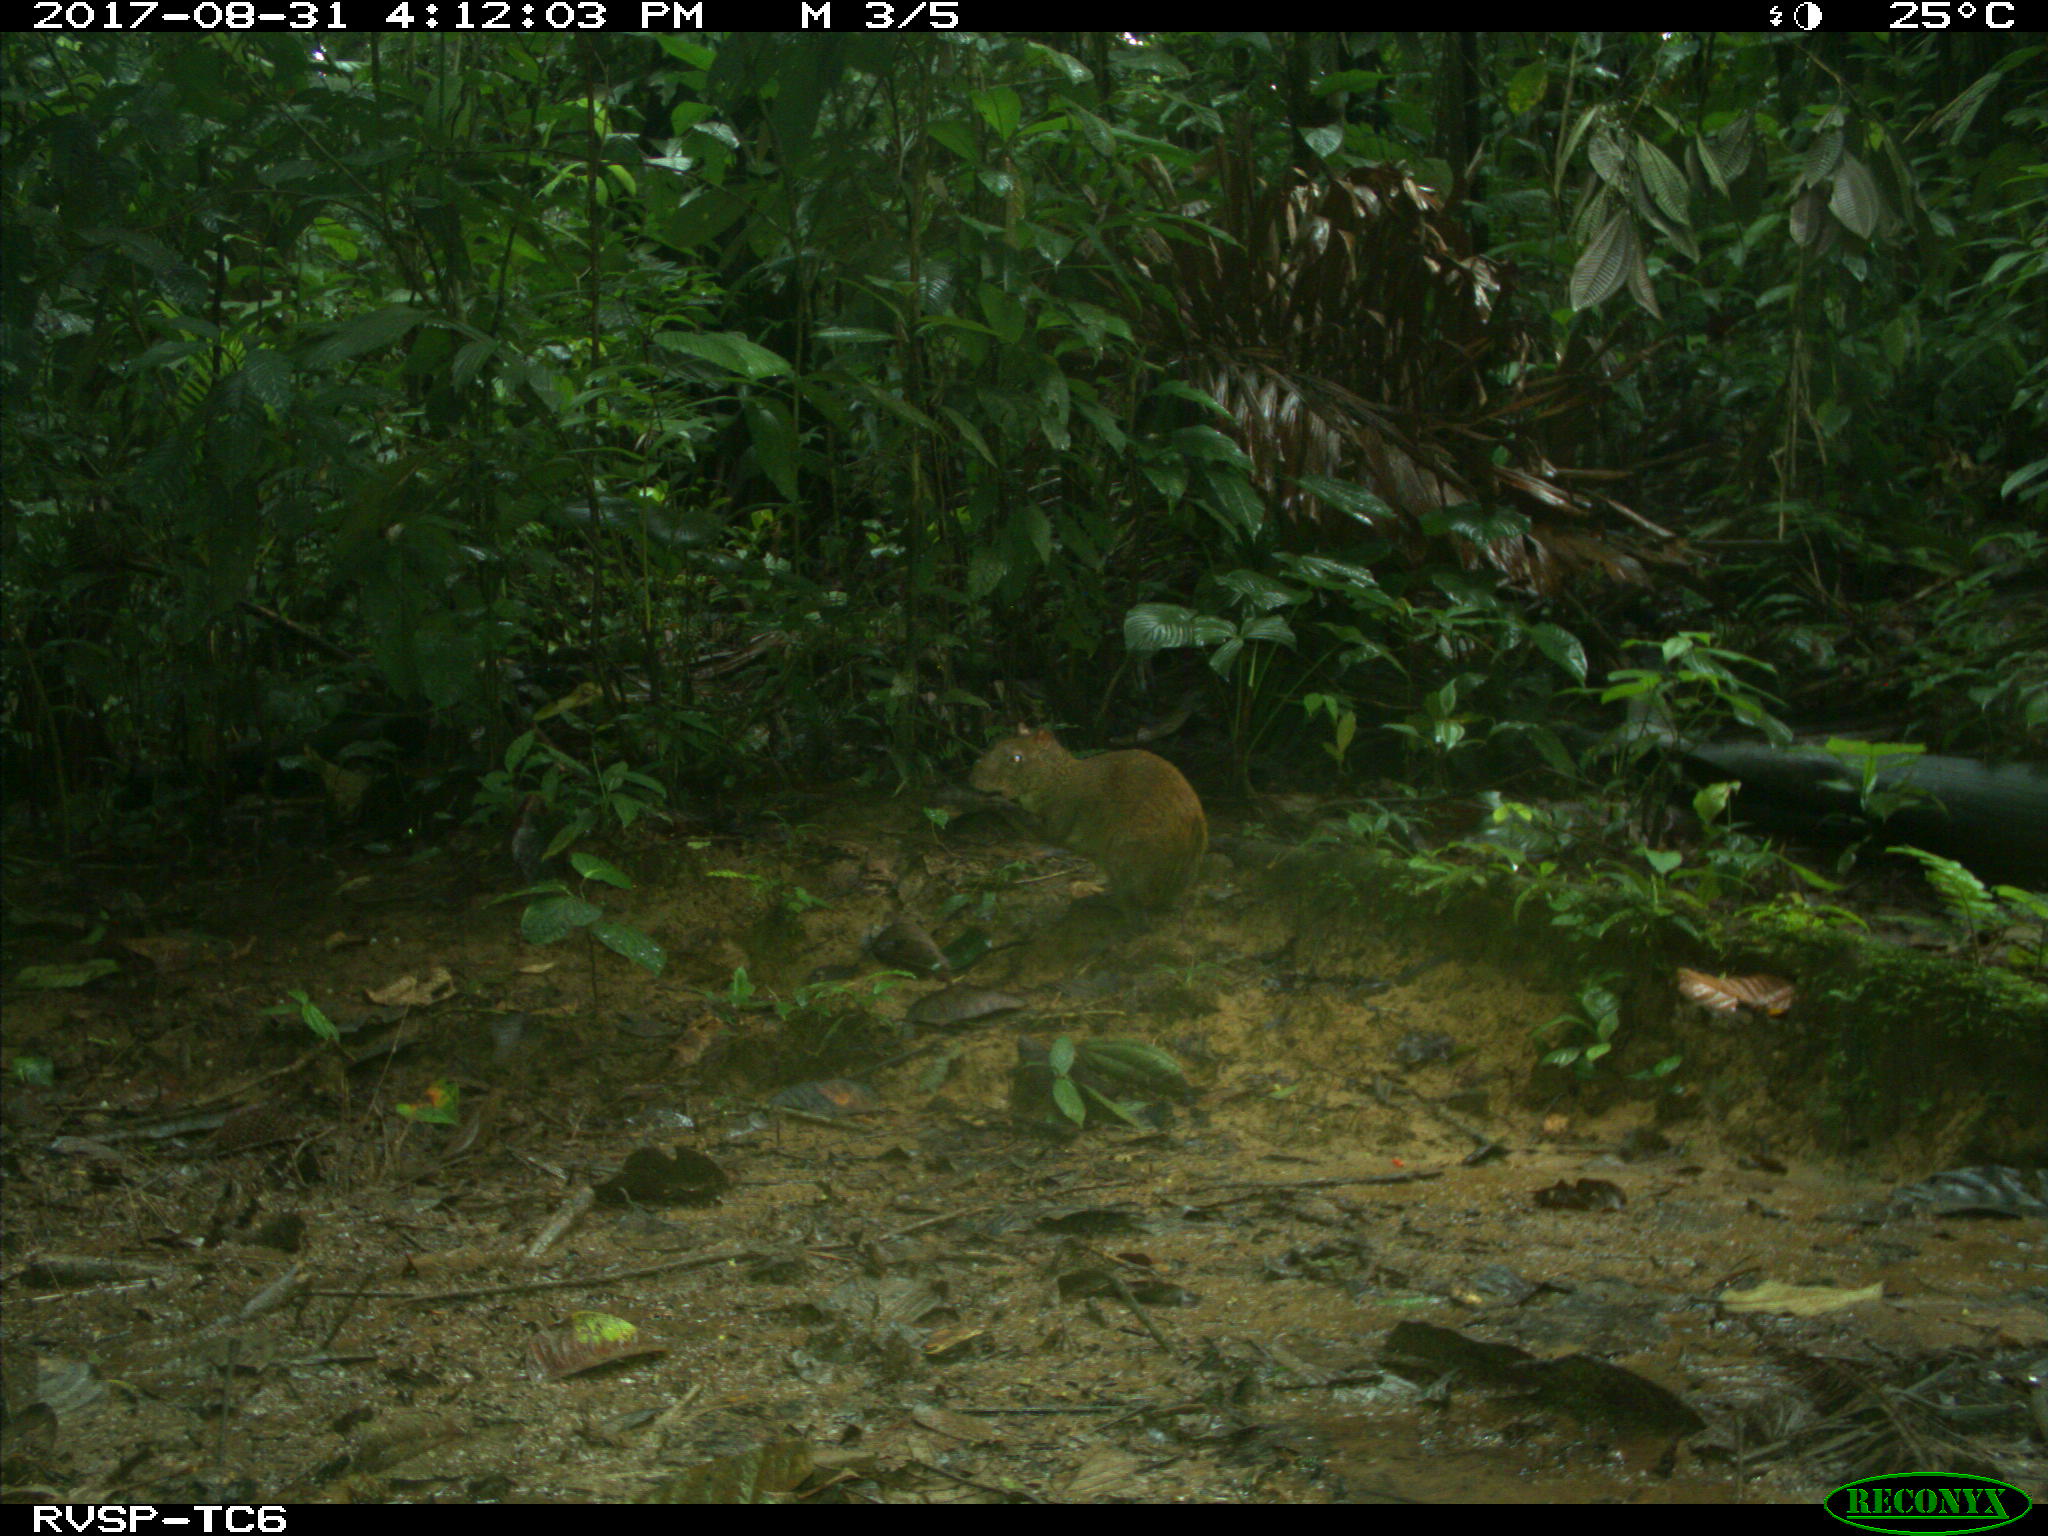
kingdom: Animalia
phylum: Chordata
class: Mammalia
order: Rodentia
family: Dasyproctidae
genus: Dasyprocta
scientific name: Dasyprocta punctata
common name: Central american agouti
